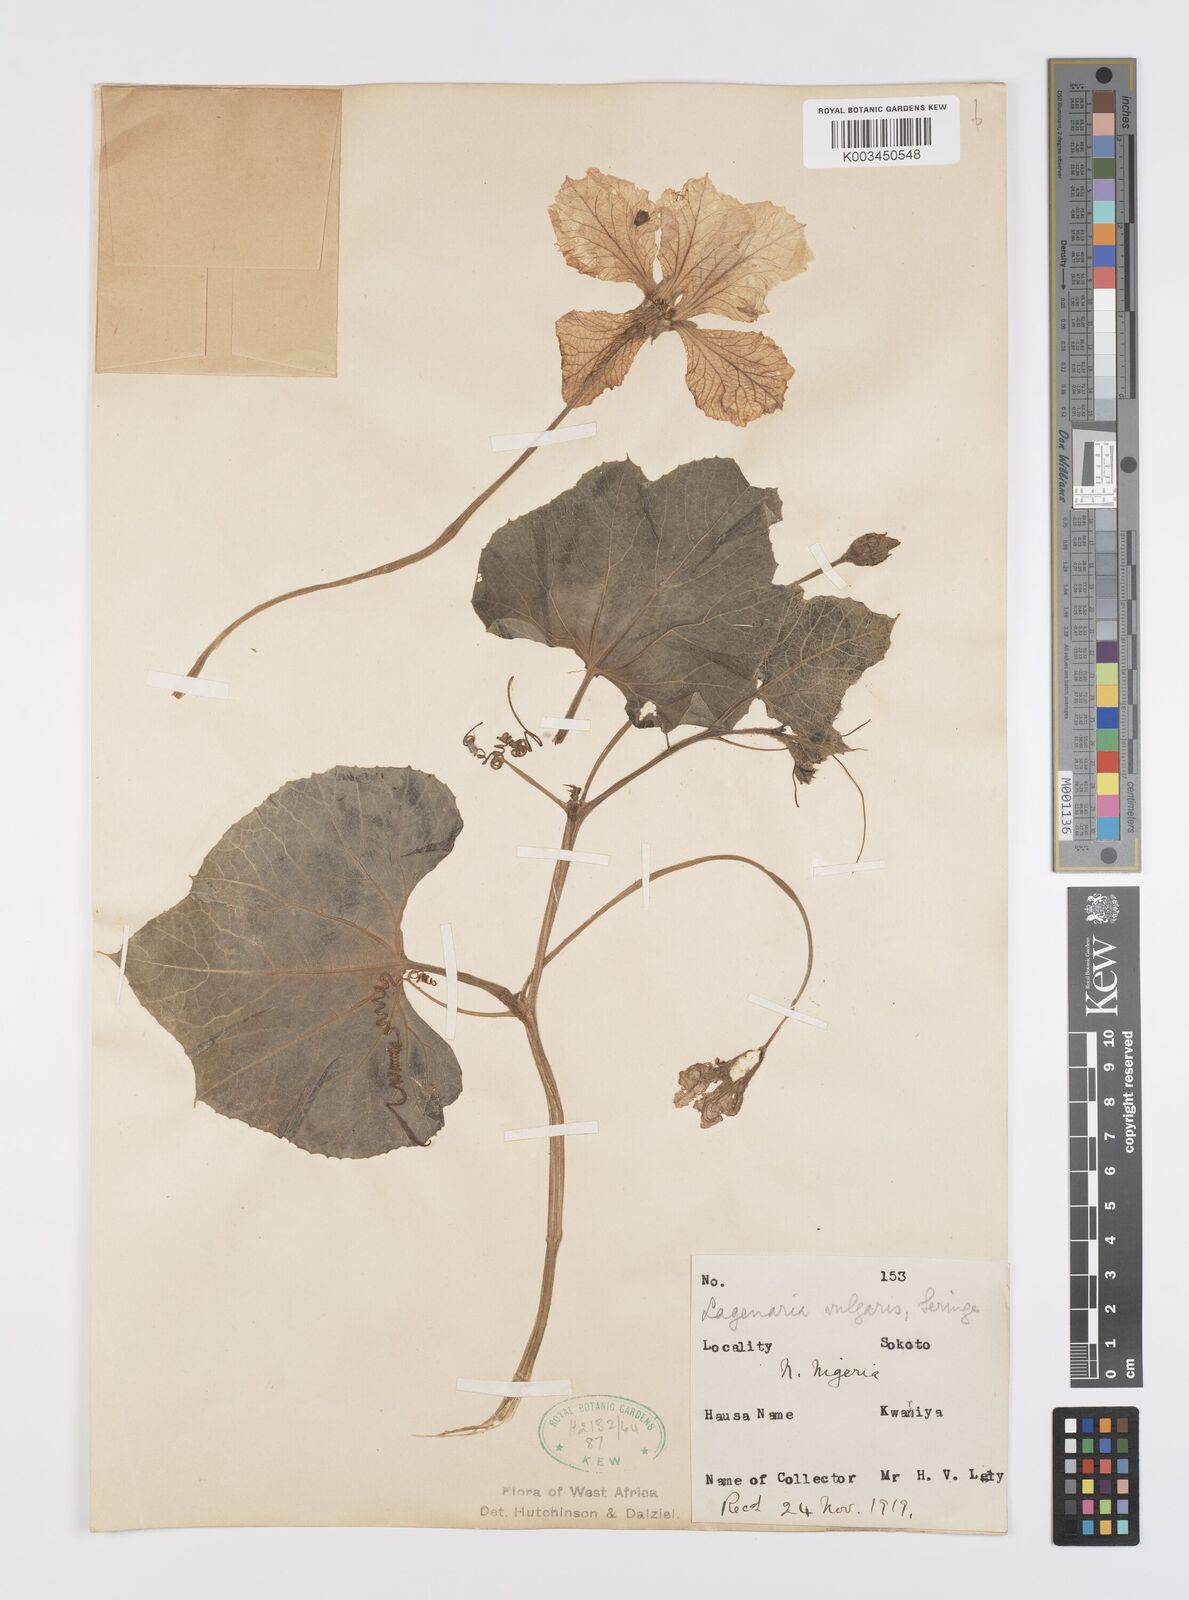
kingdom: Plantae
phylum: Tracheophyta
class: Magnoliopsida
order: Cucurbitales
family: Cucurbitaceae
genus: Lagenaria
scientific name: Lagenaria siceraria
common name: Bottle gourd
